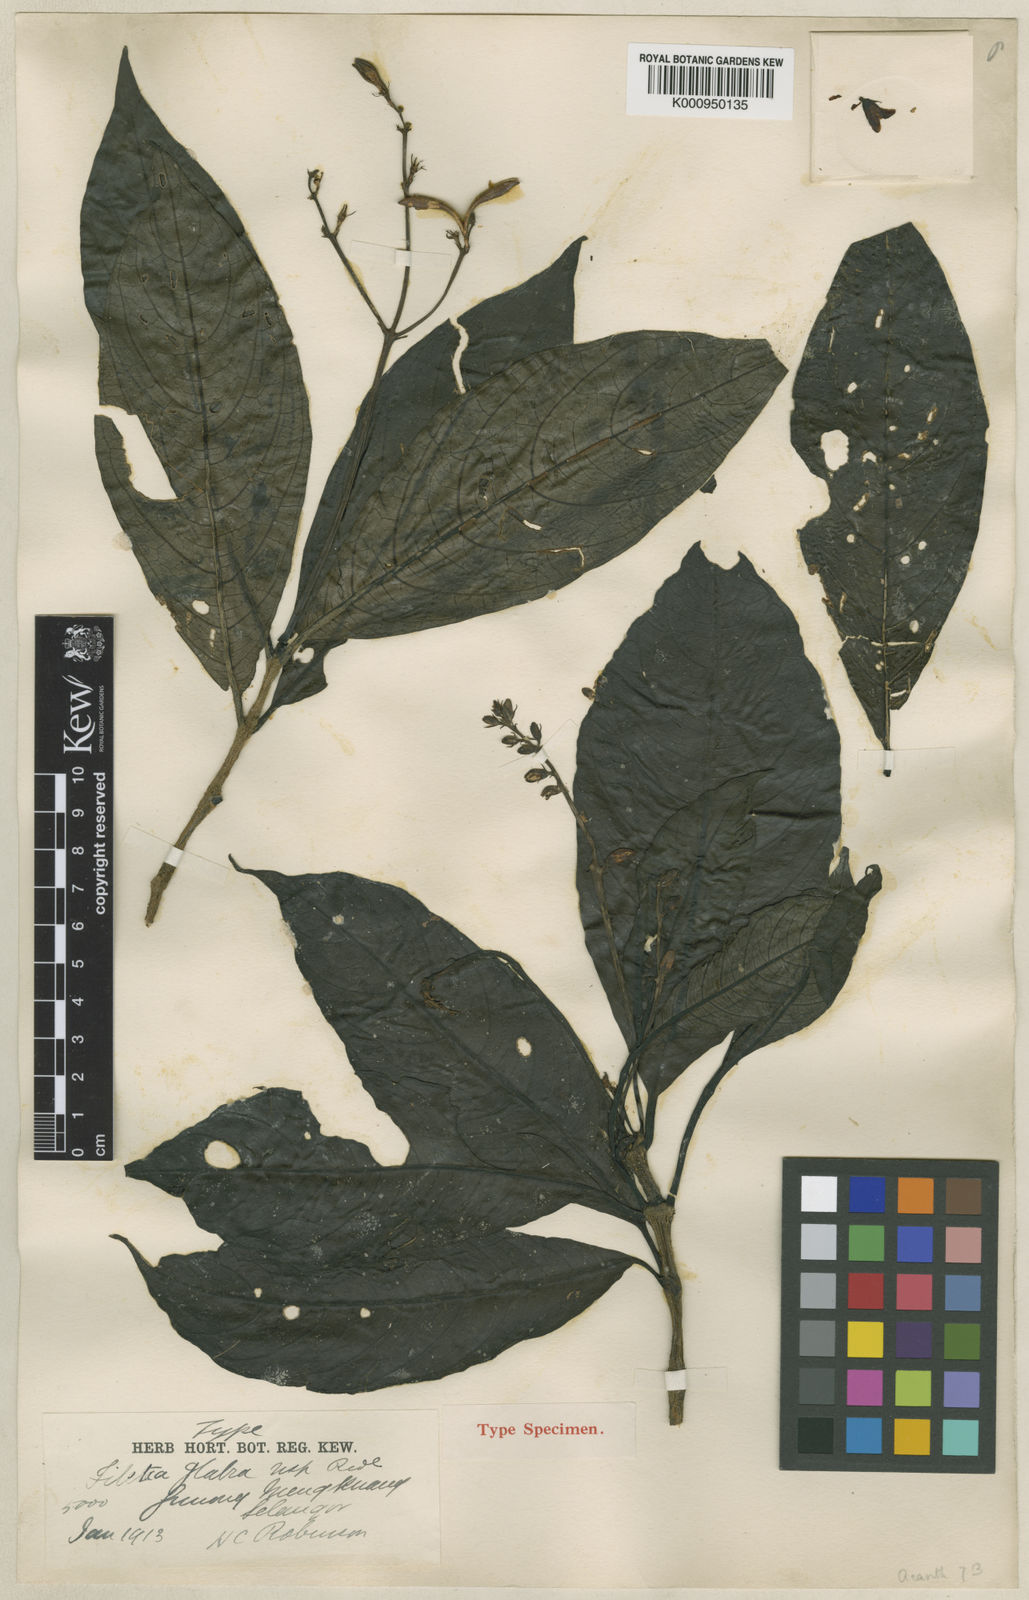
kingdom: Plantae
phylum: Tracheophyta
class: Magnoliopsida
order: Lamiales
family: Acanthaceae
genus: Filetia
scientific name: Filetia glabra
